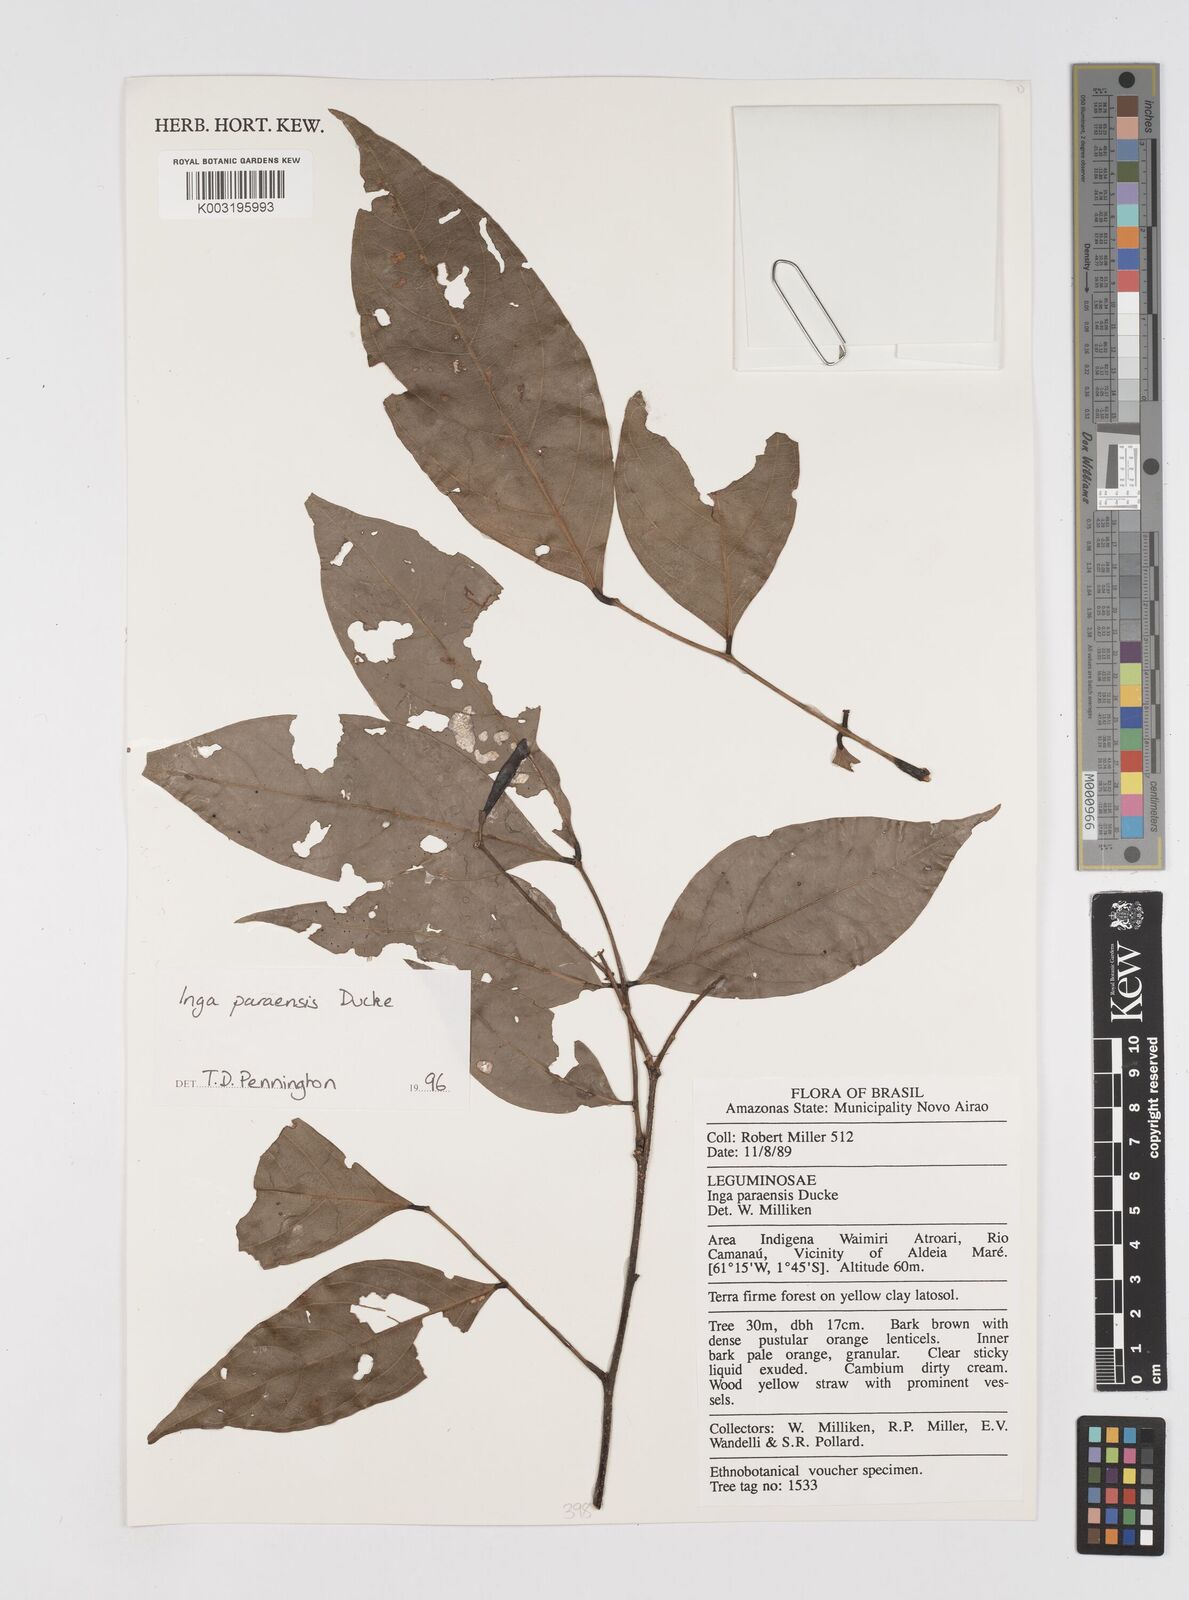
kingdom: Plantae
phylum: Tracheophyta
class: Magnoliopsida
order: Fabales
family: Fabaceae
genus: Inga
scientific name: Inga paraensis
